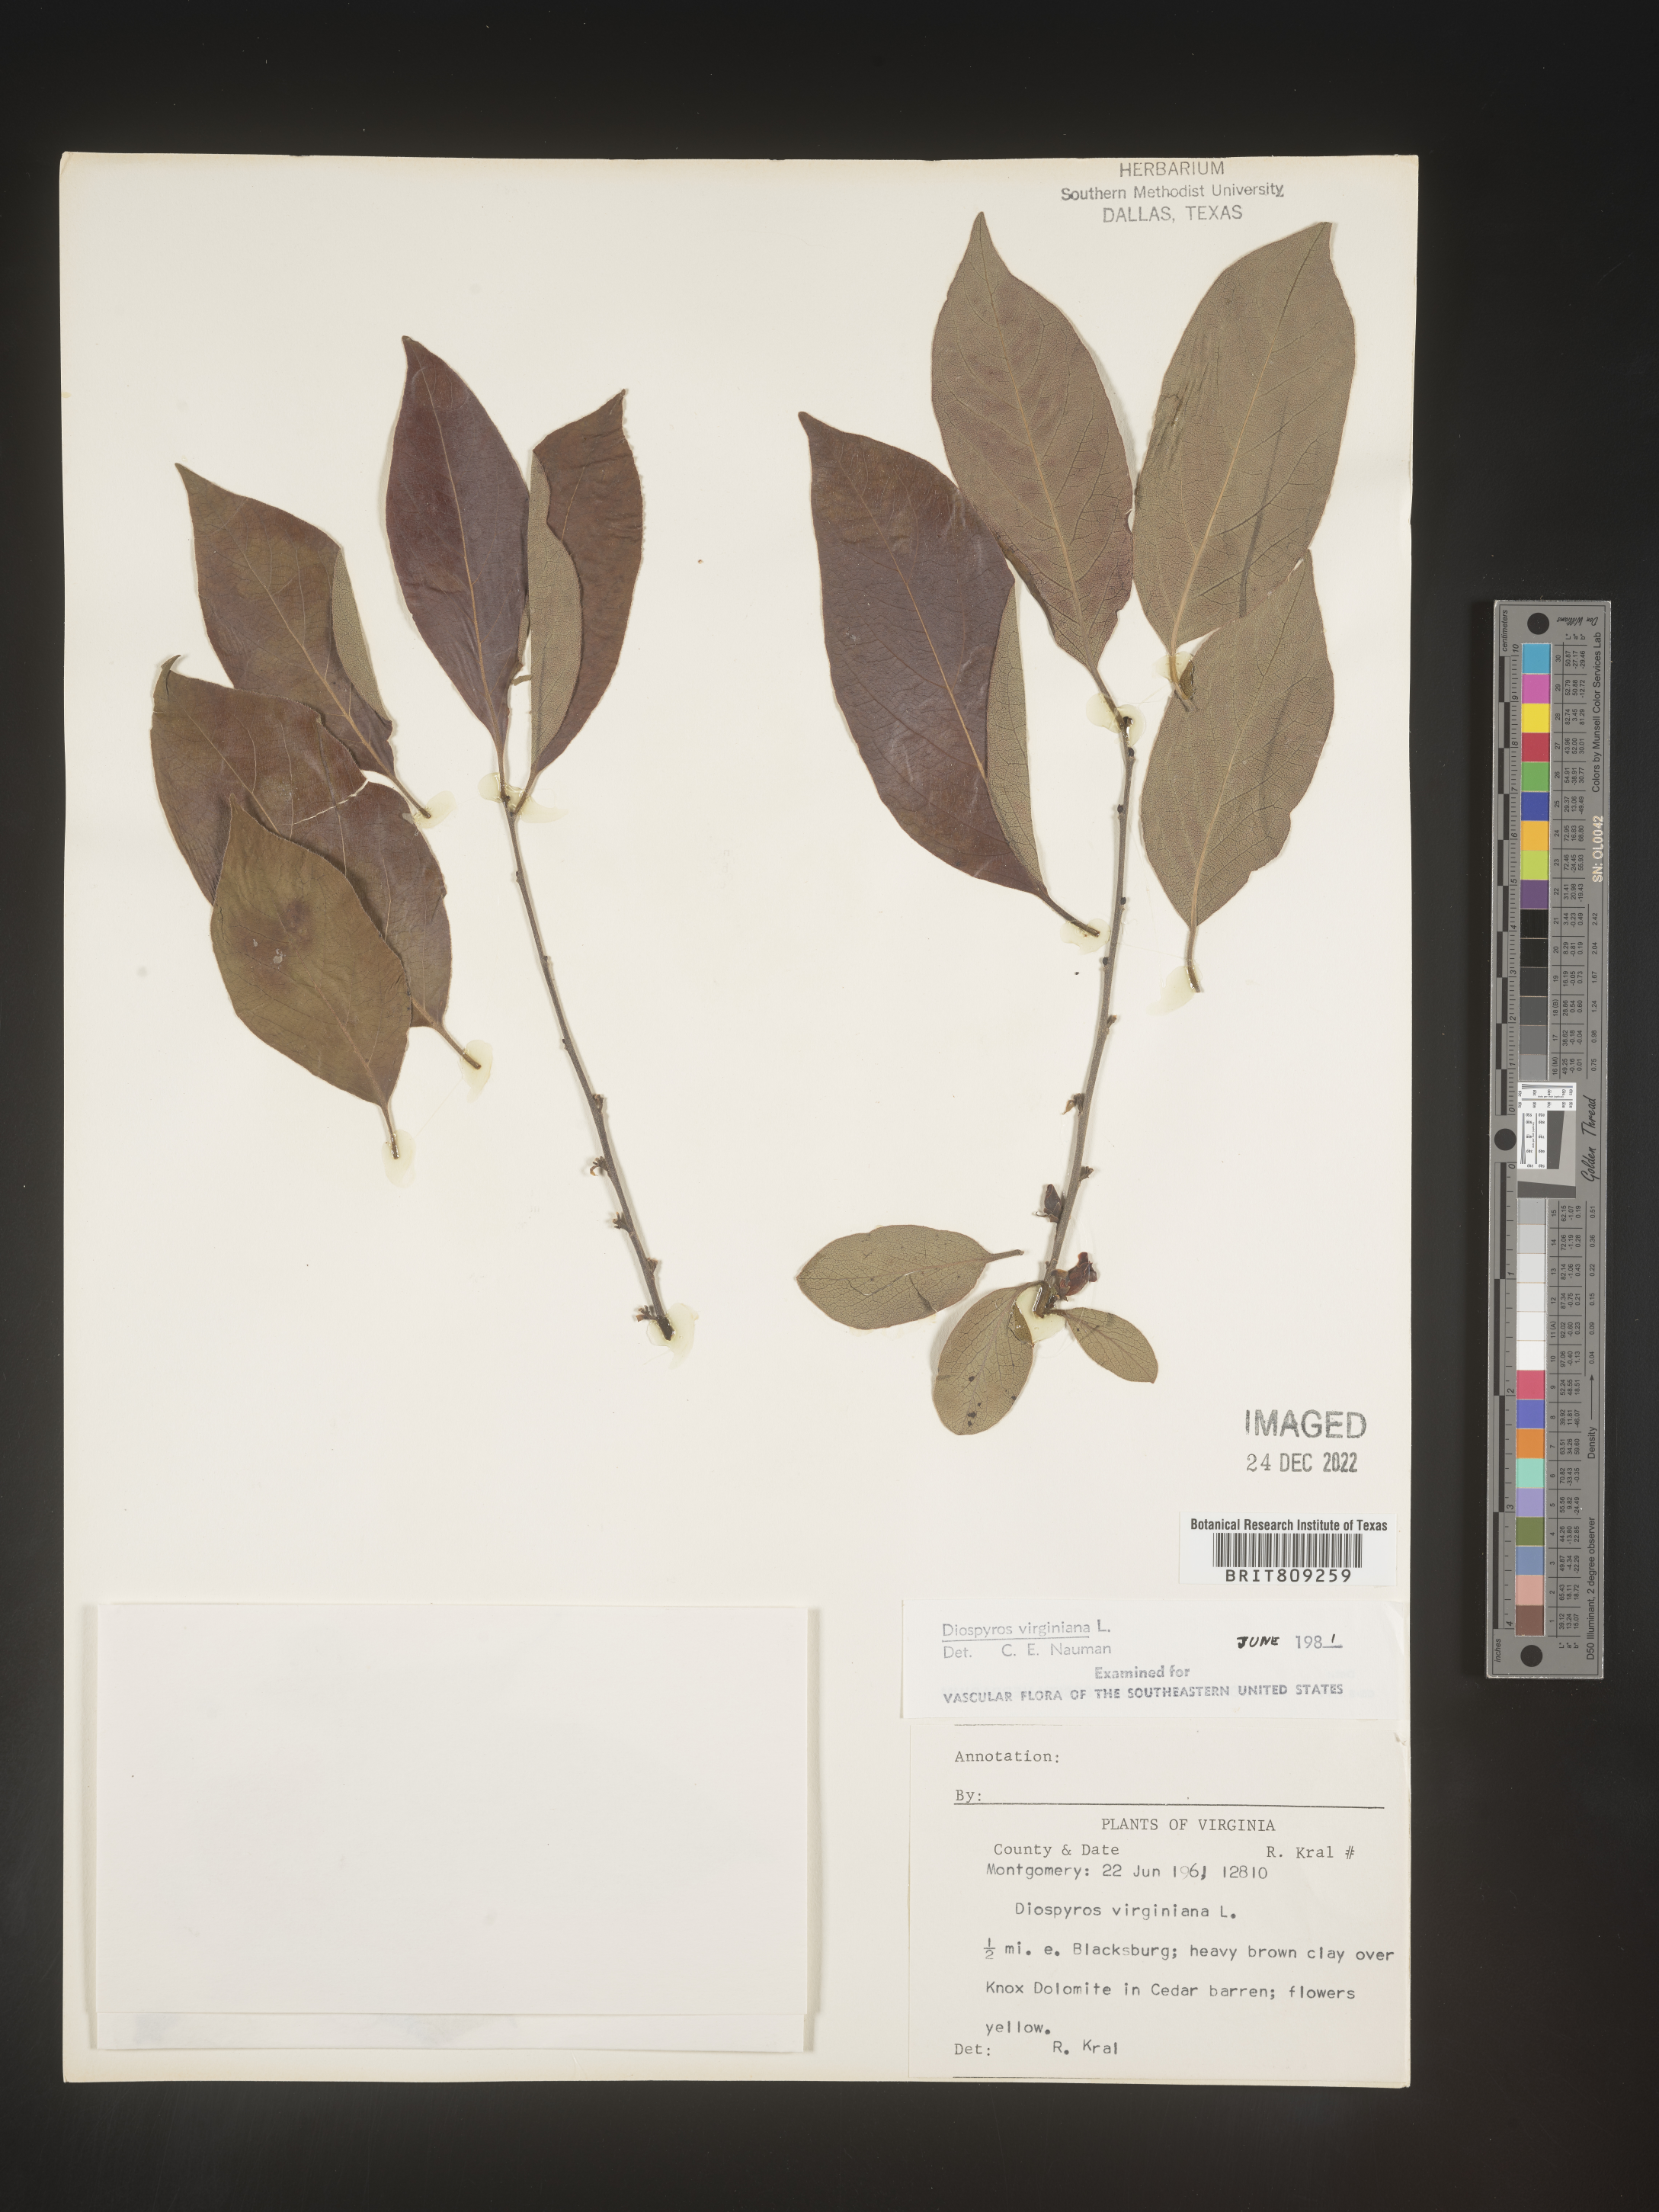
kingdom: Plantae
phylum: Tracheophyta
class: Magnoliopsida
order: Ericales
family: Ebenaceae
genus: Diospyros
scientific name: Diospyros virginiana
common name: Persimmon
